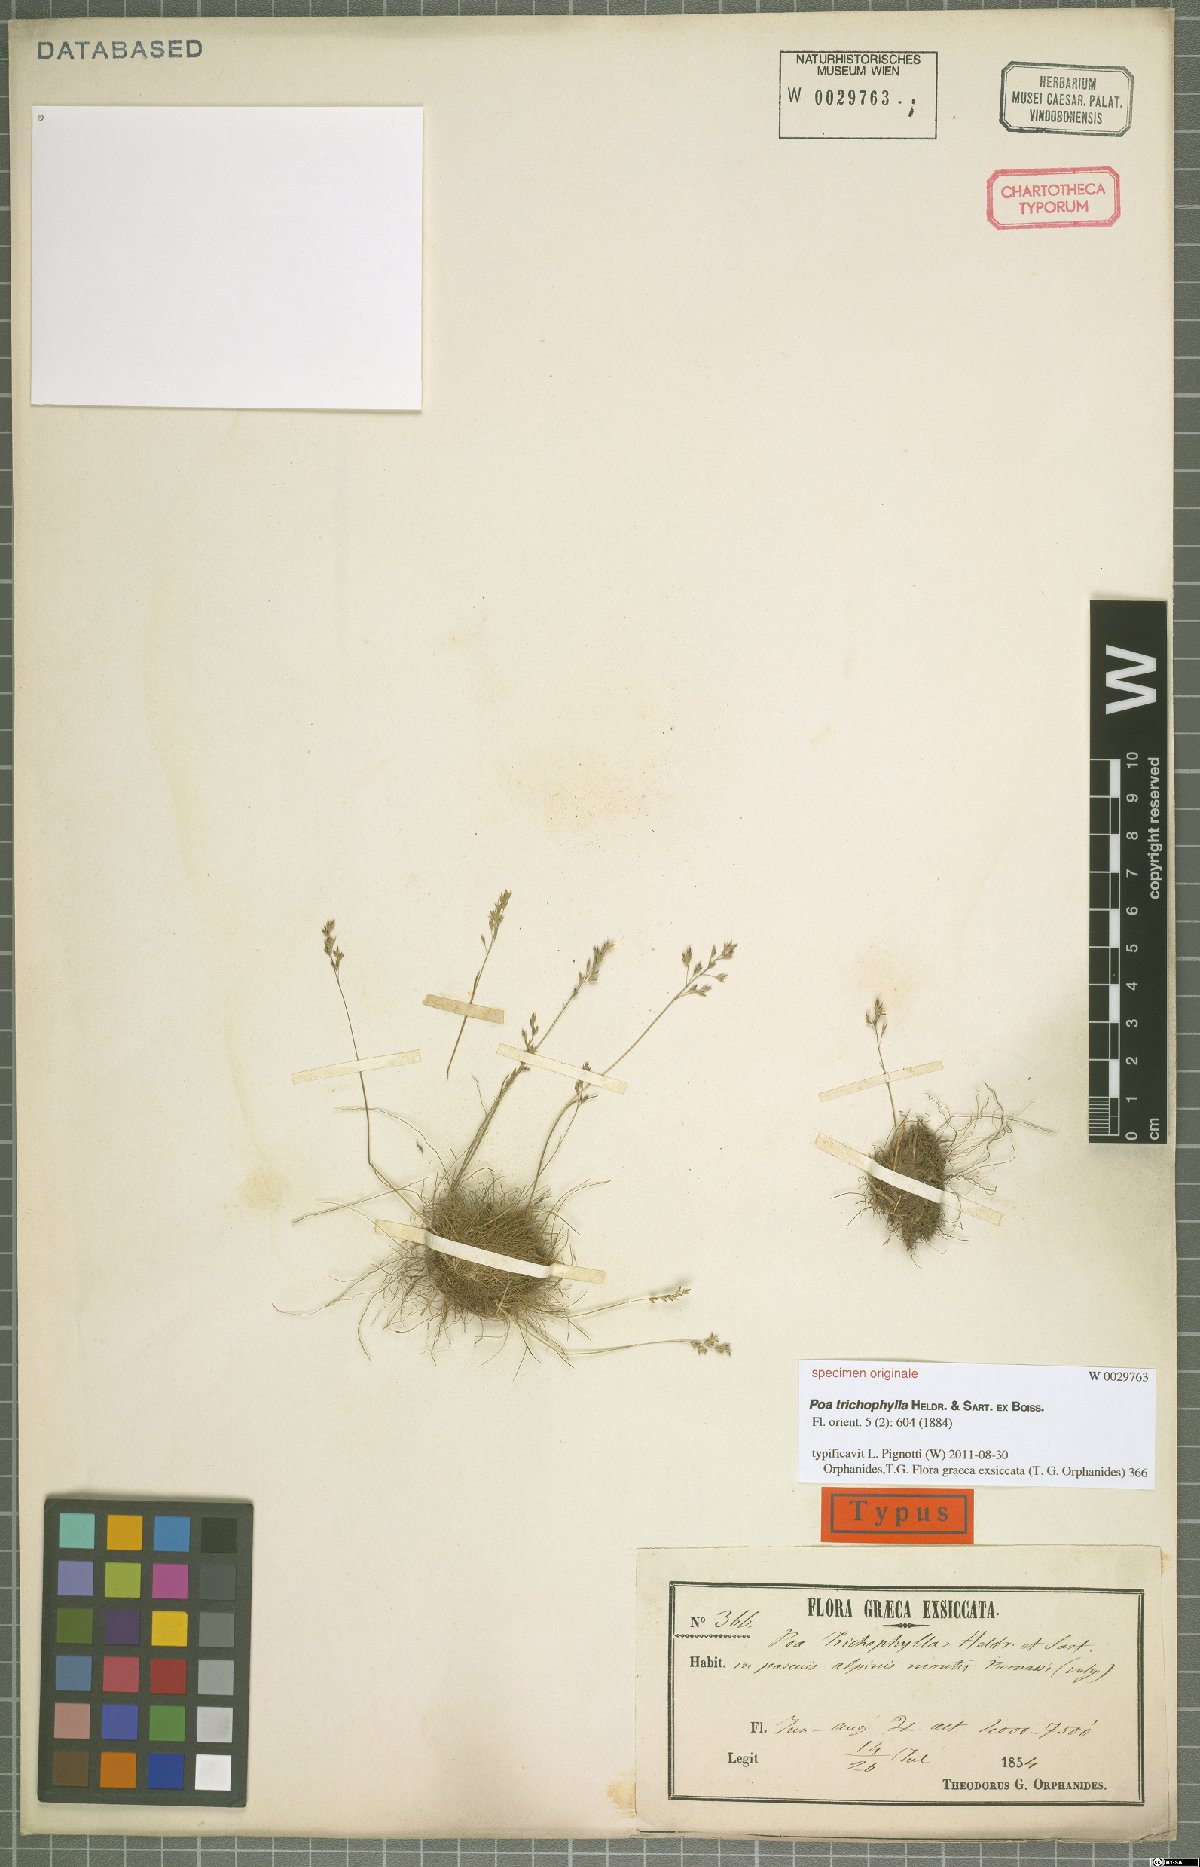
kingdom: Plantae
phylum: Tracheophyta
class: Liliopsida
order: Poales
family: Poaceae
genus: Poa
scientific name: Poa trichophylla
